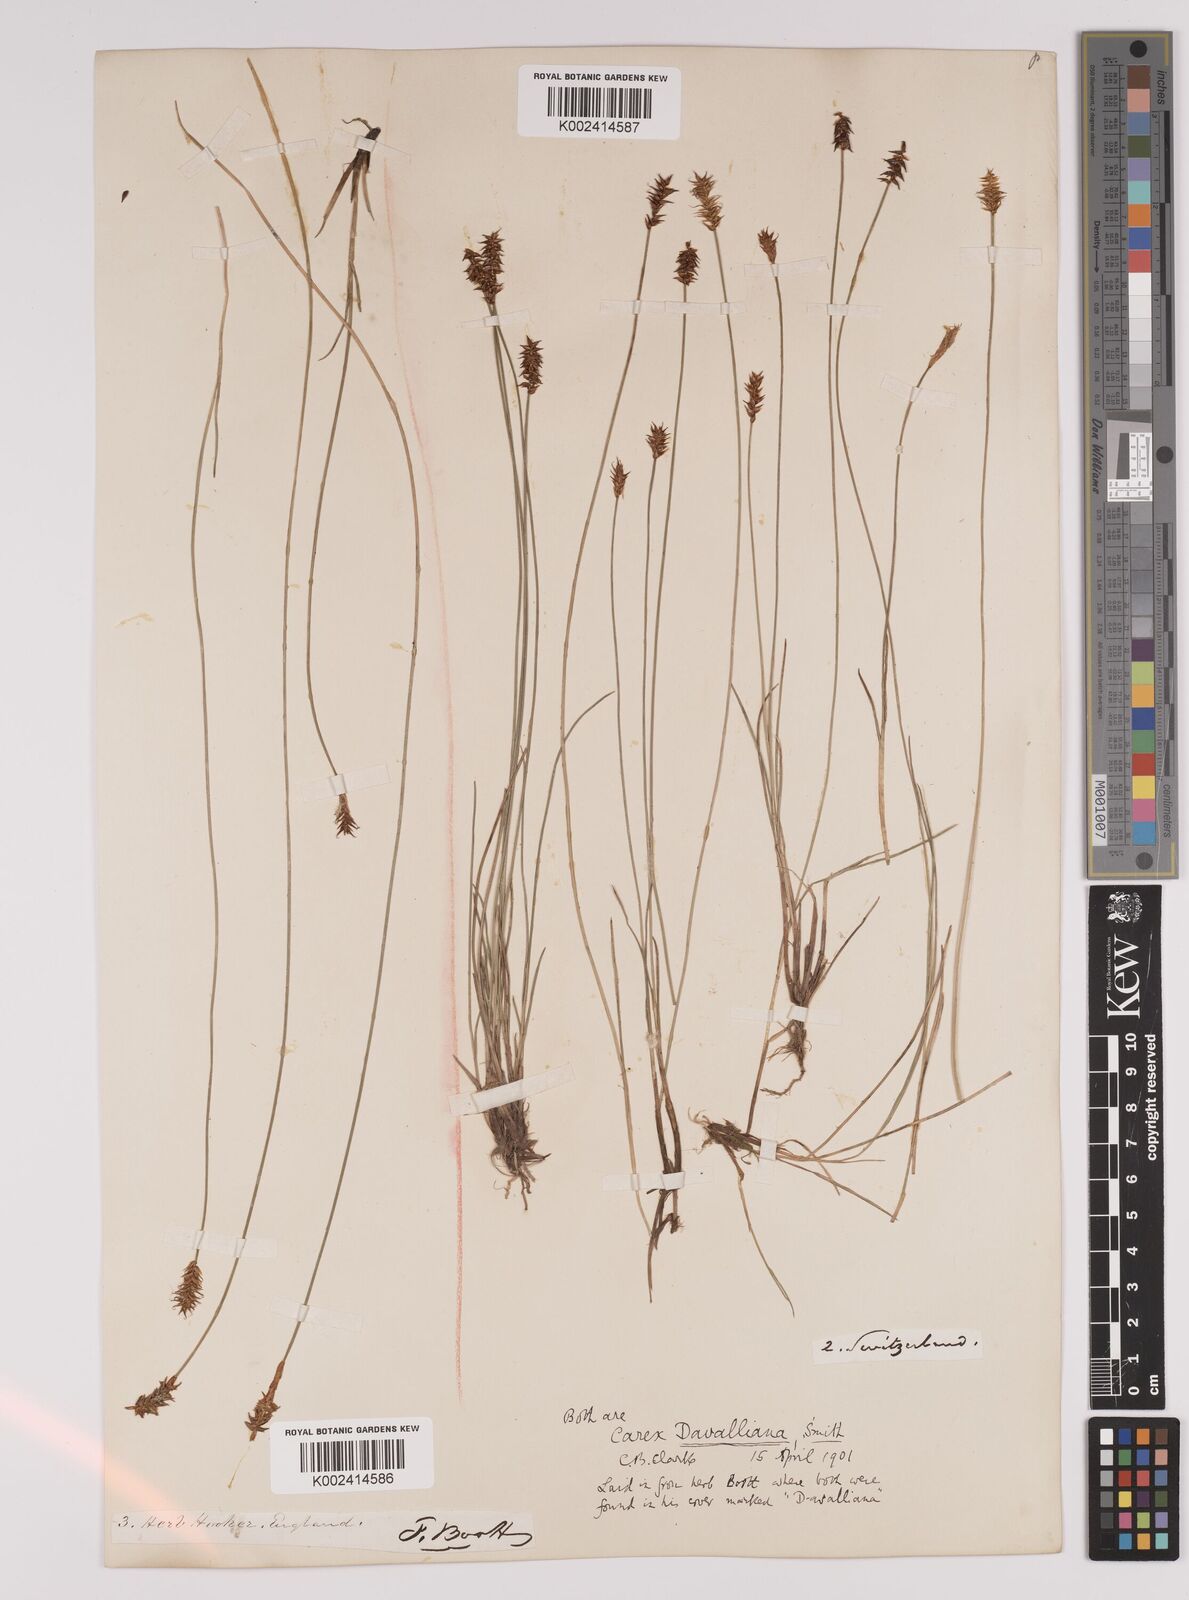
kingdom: Plantae
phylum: Tracheophyta
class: Liliopsida
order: Poales
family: Cyperaceae
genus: Carex
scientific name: Carex davalliana
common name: Davall's sedge
